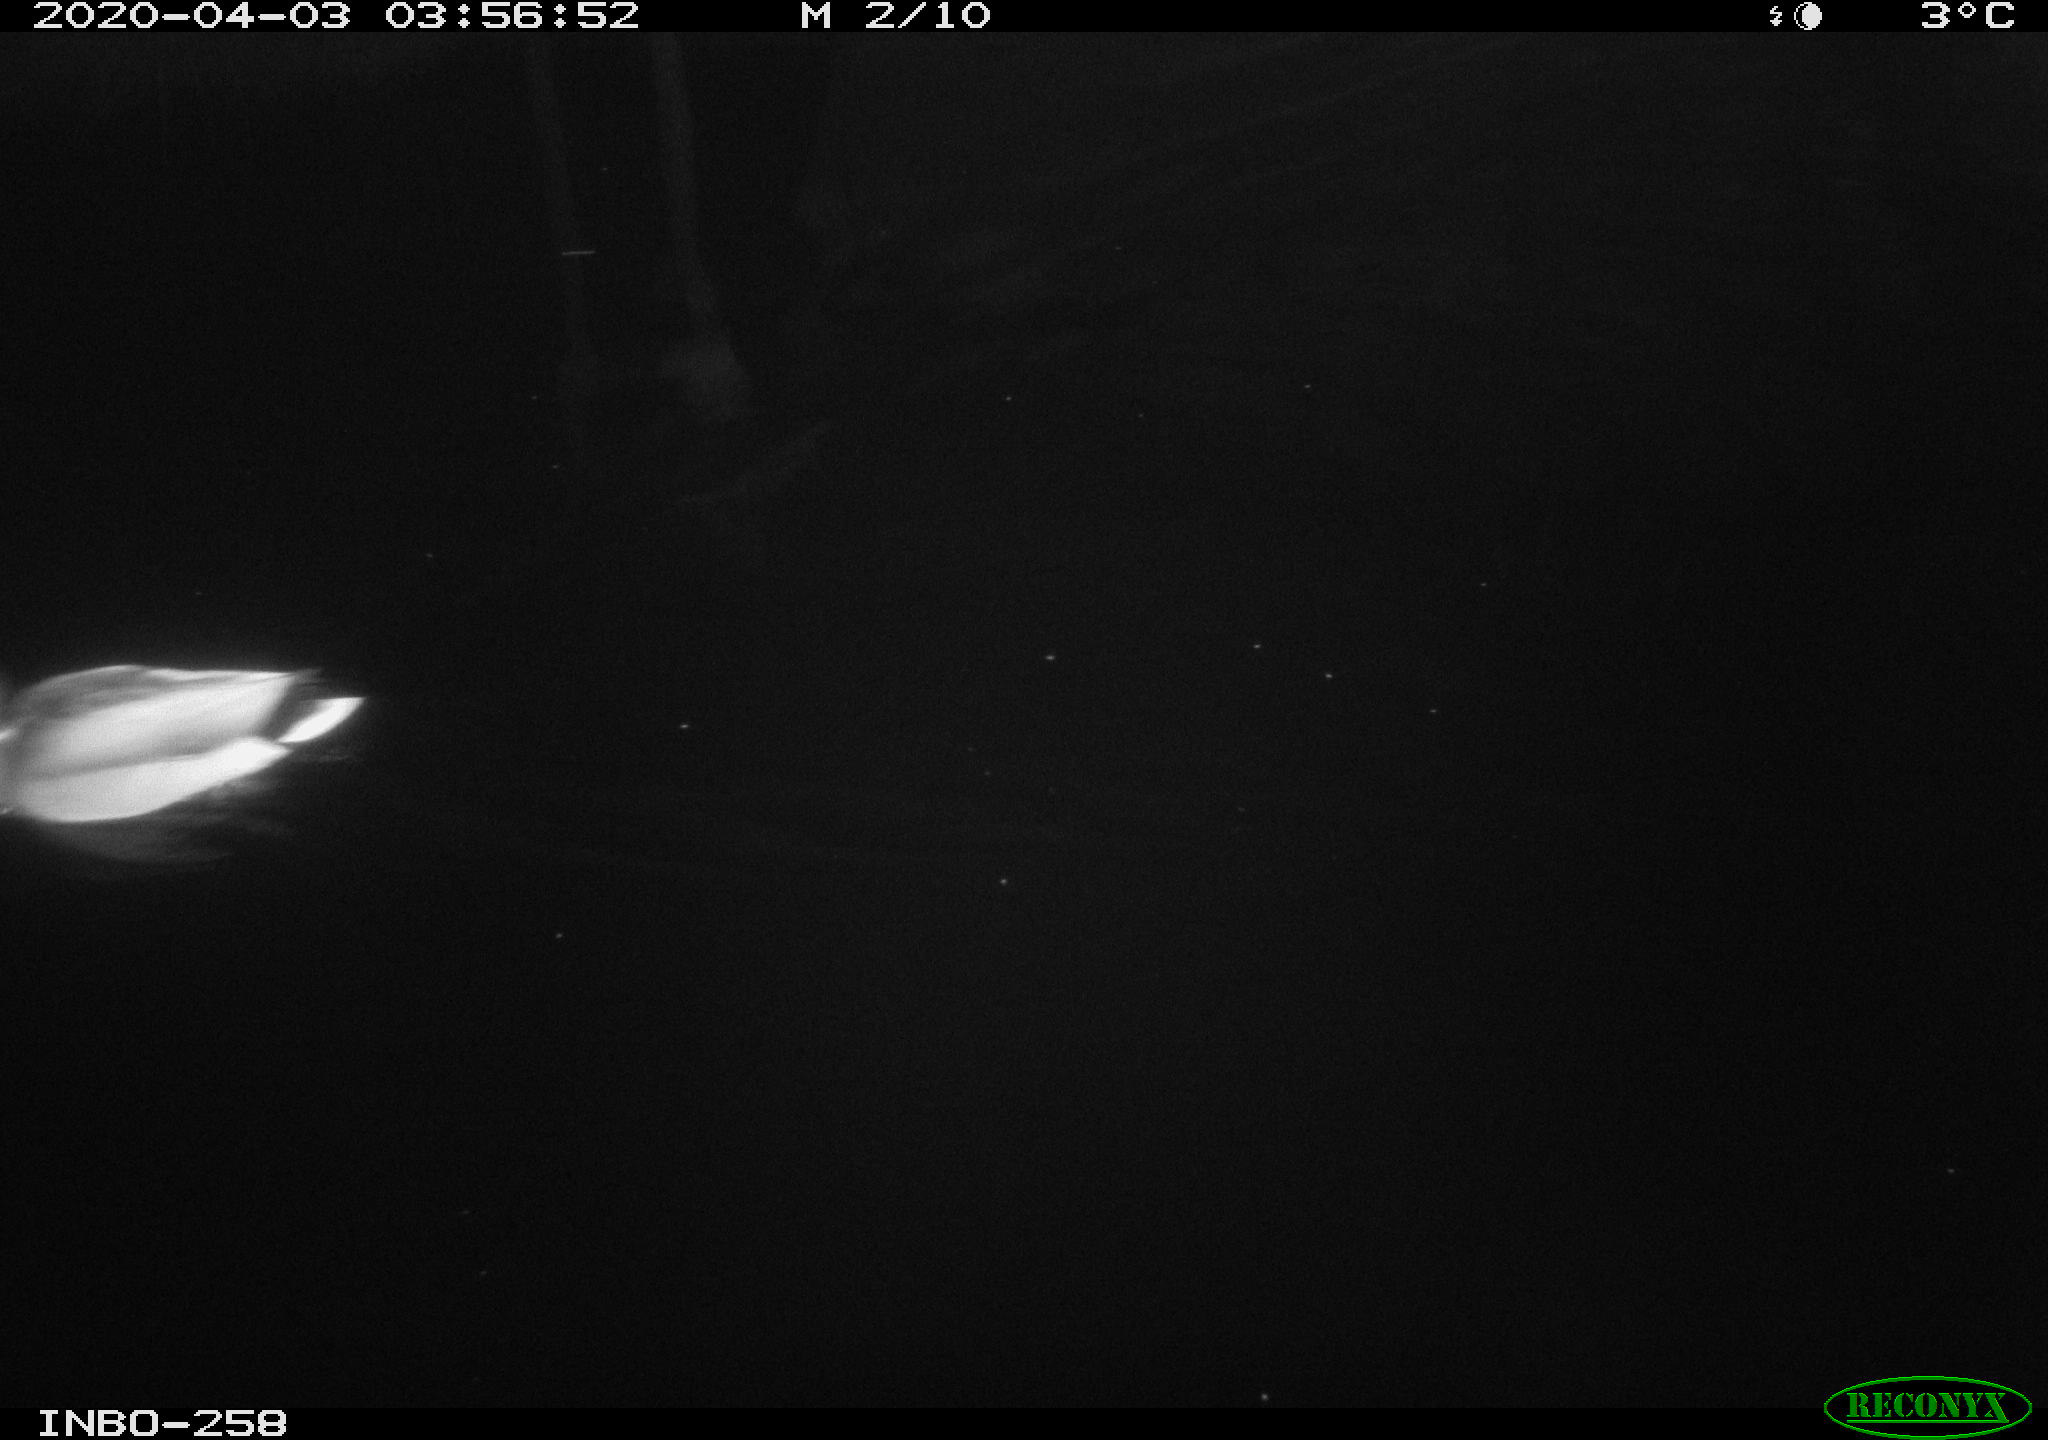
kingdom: Animalia
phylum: Chordata
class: Aves
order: Anseriformes
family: Anatidae
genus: Anas
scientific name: Anas platyrhynchos
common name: Mallard
